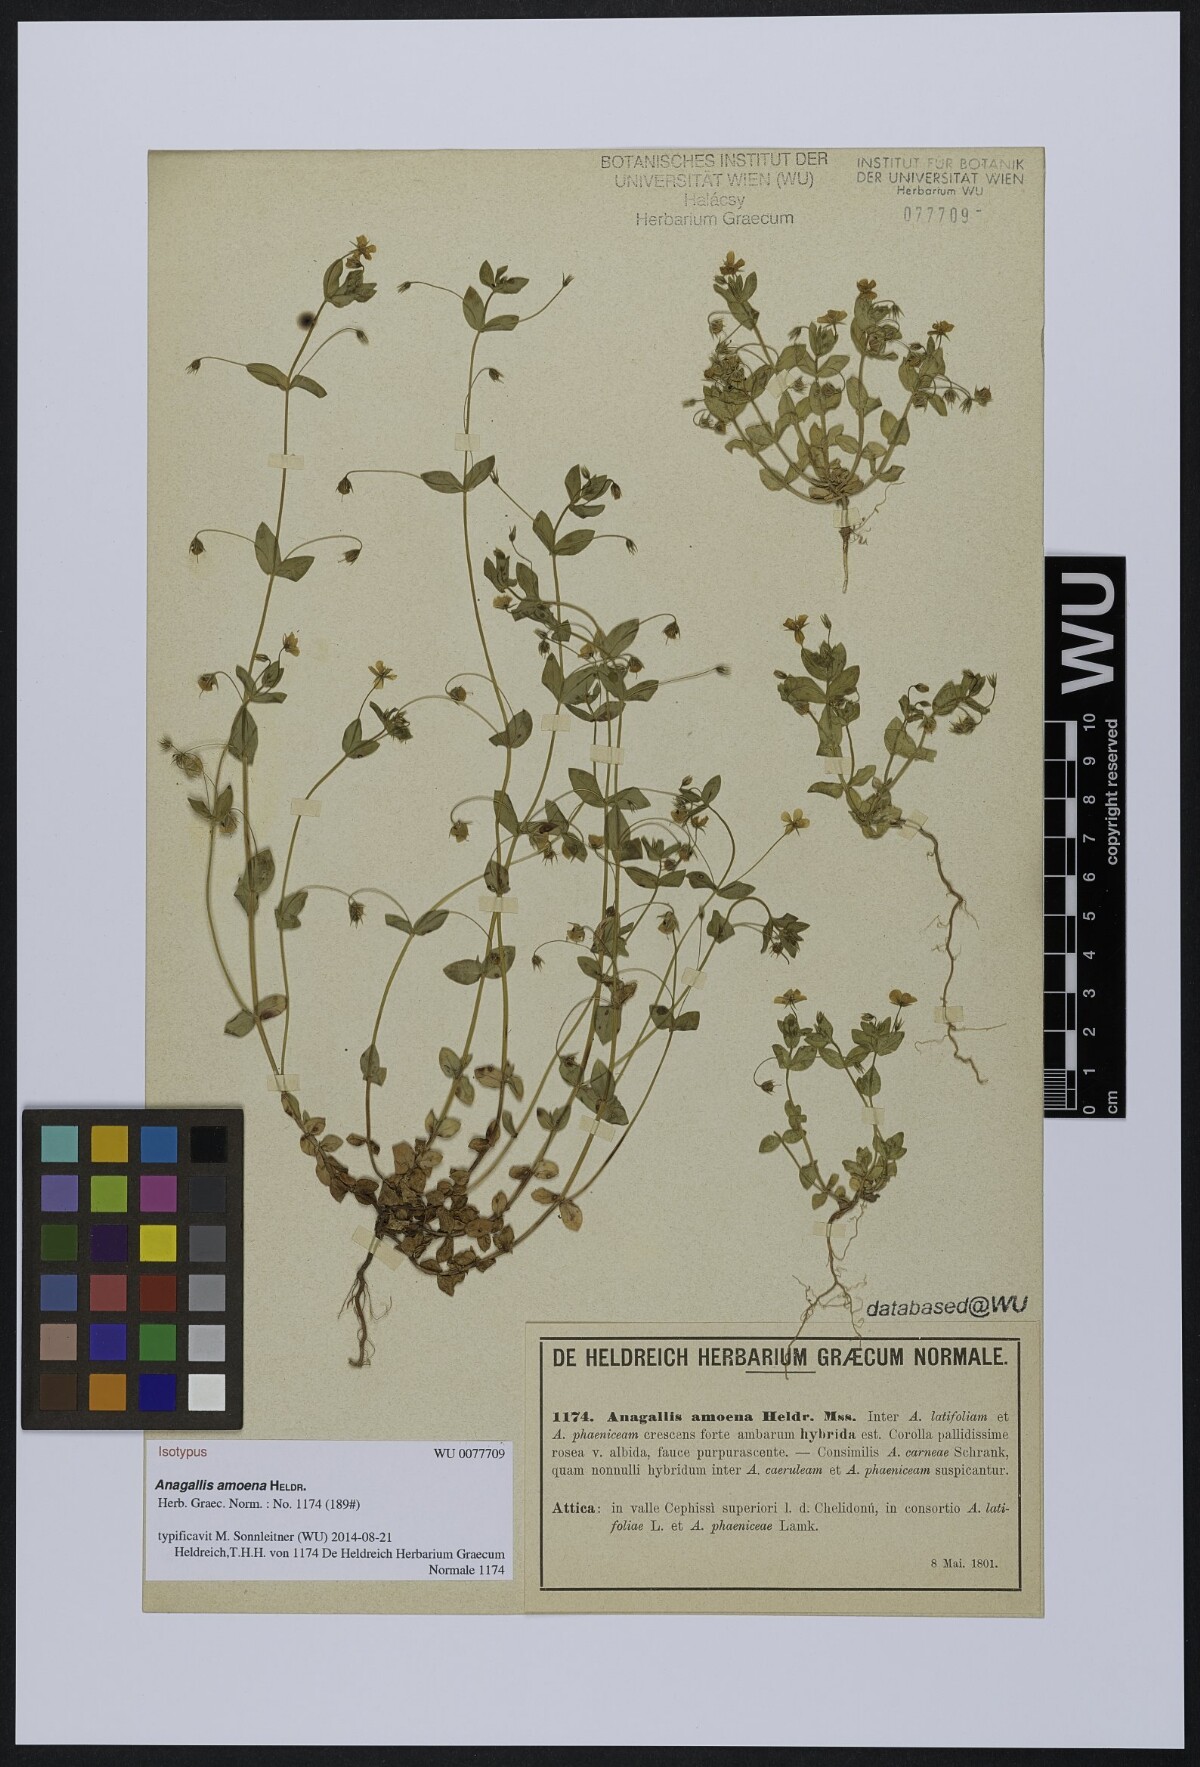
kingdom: Plantae
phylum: Tracheophyta
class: Magnoliopsida
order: Ericales
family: Primulaceae
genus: Lysimachia
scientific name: Lysimachia arvensis
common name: Scarlet pimpernel
